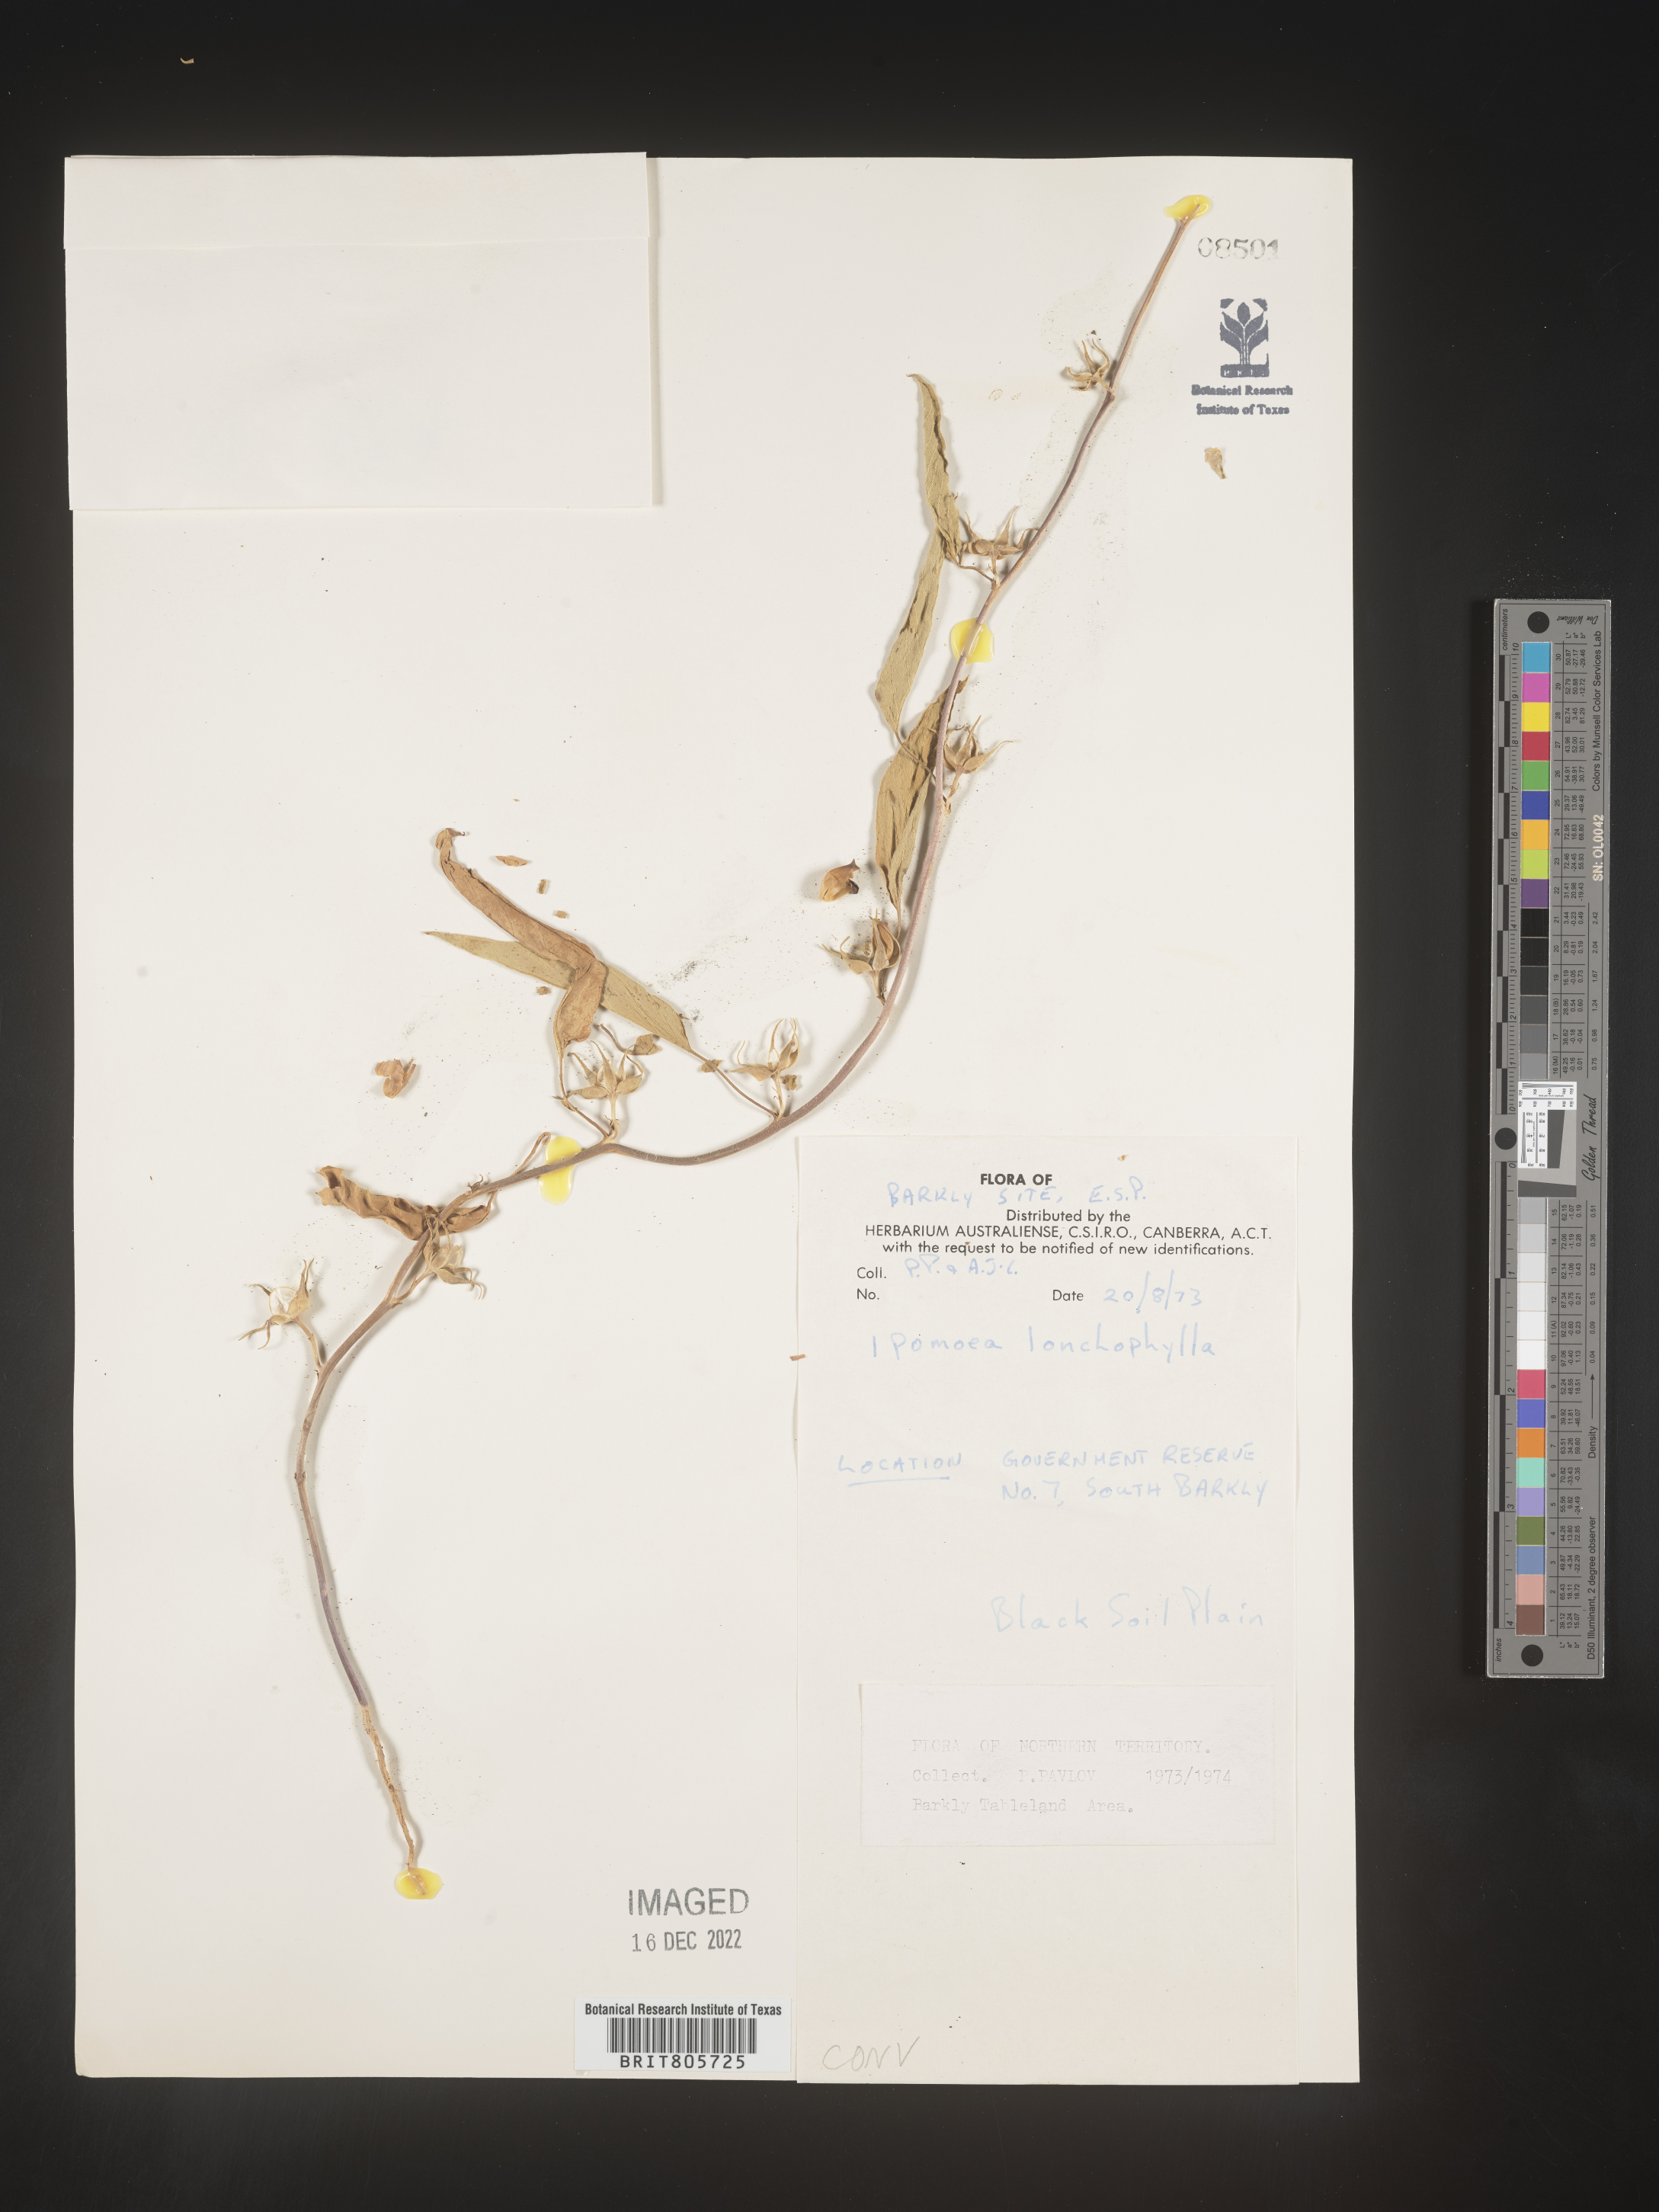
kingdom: Plantae
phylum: Tracheophyta
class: Magnoliopsida
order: Solanales
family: Convolvulaceae
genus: Ipomoea
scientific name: Ipomoea
